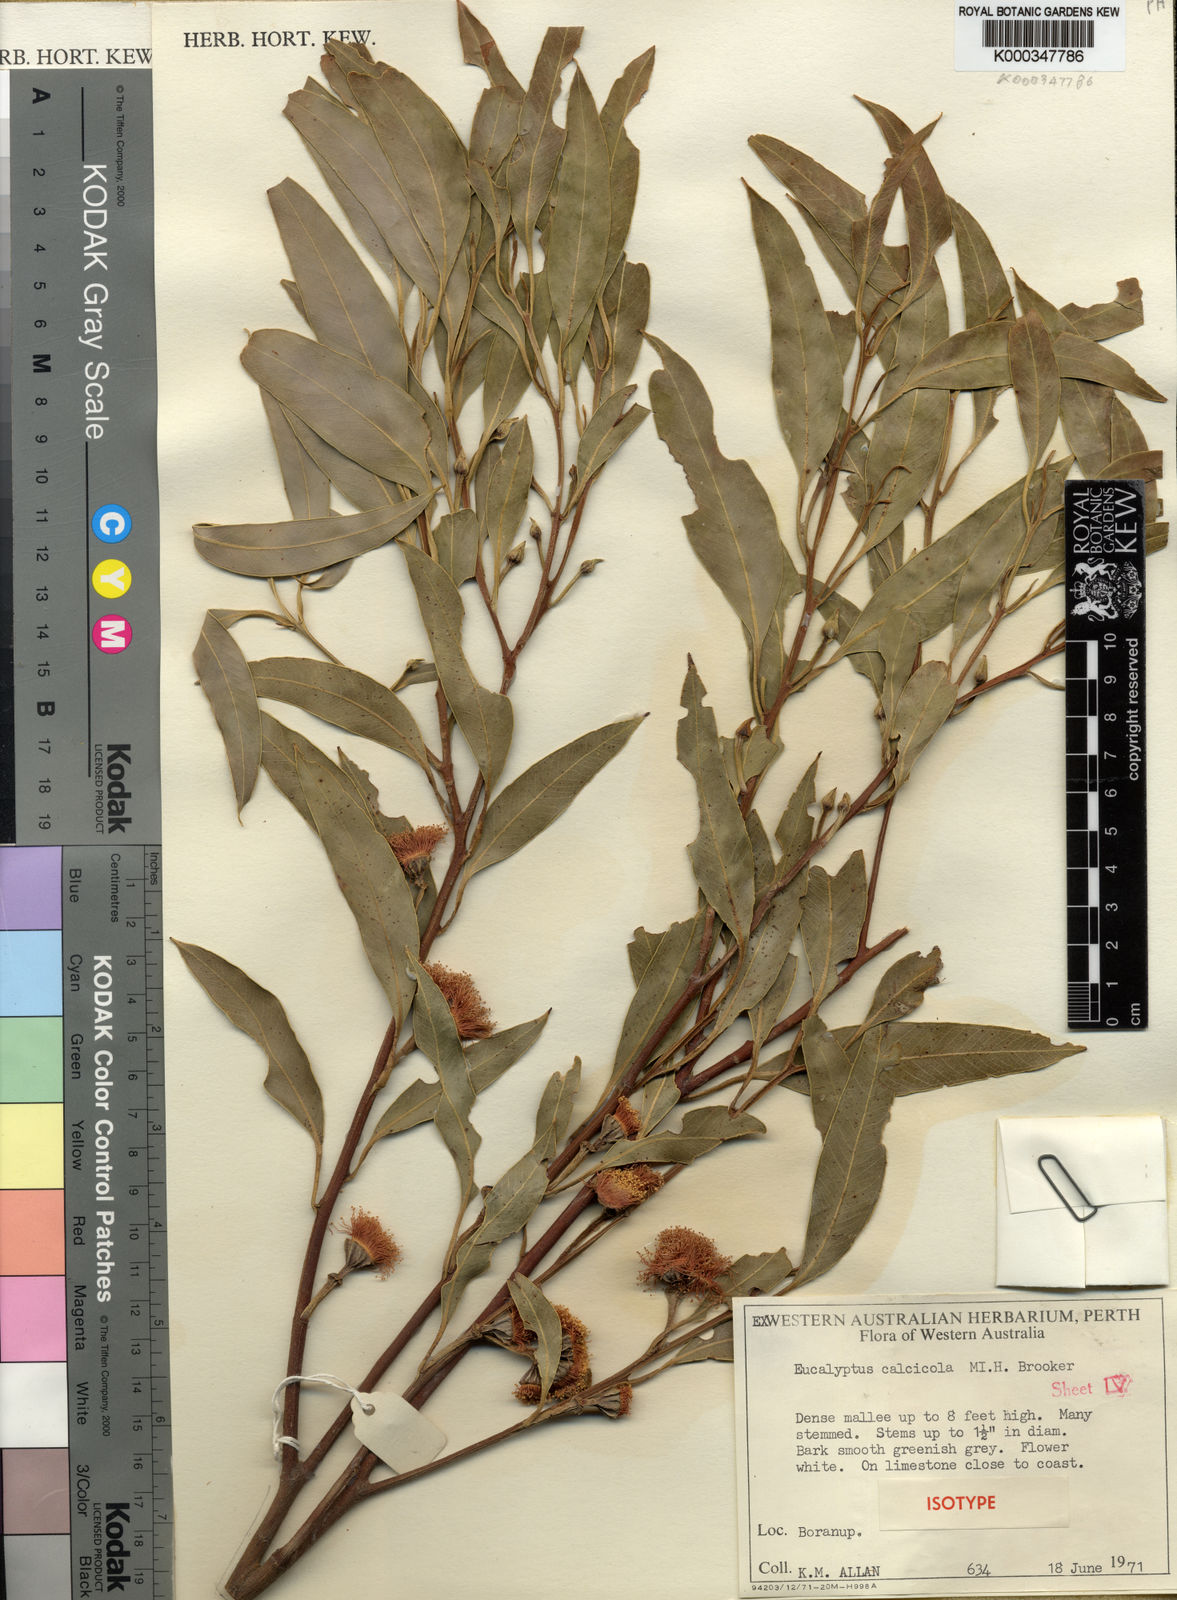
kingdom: Plantae
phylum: Tracheophyta
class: Magnoliopsida
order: Myrtales
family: Myrtaceae
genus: Eucalyptus
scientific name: Eucalyptus calcicola
